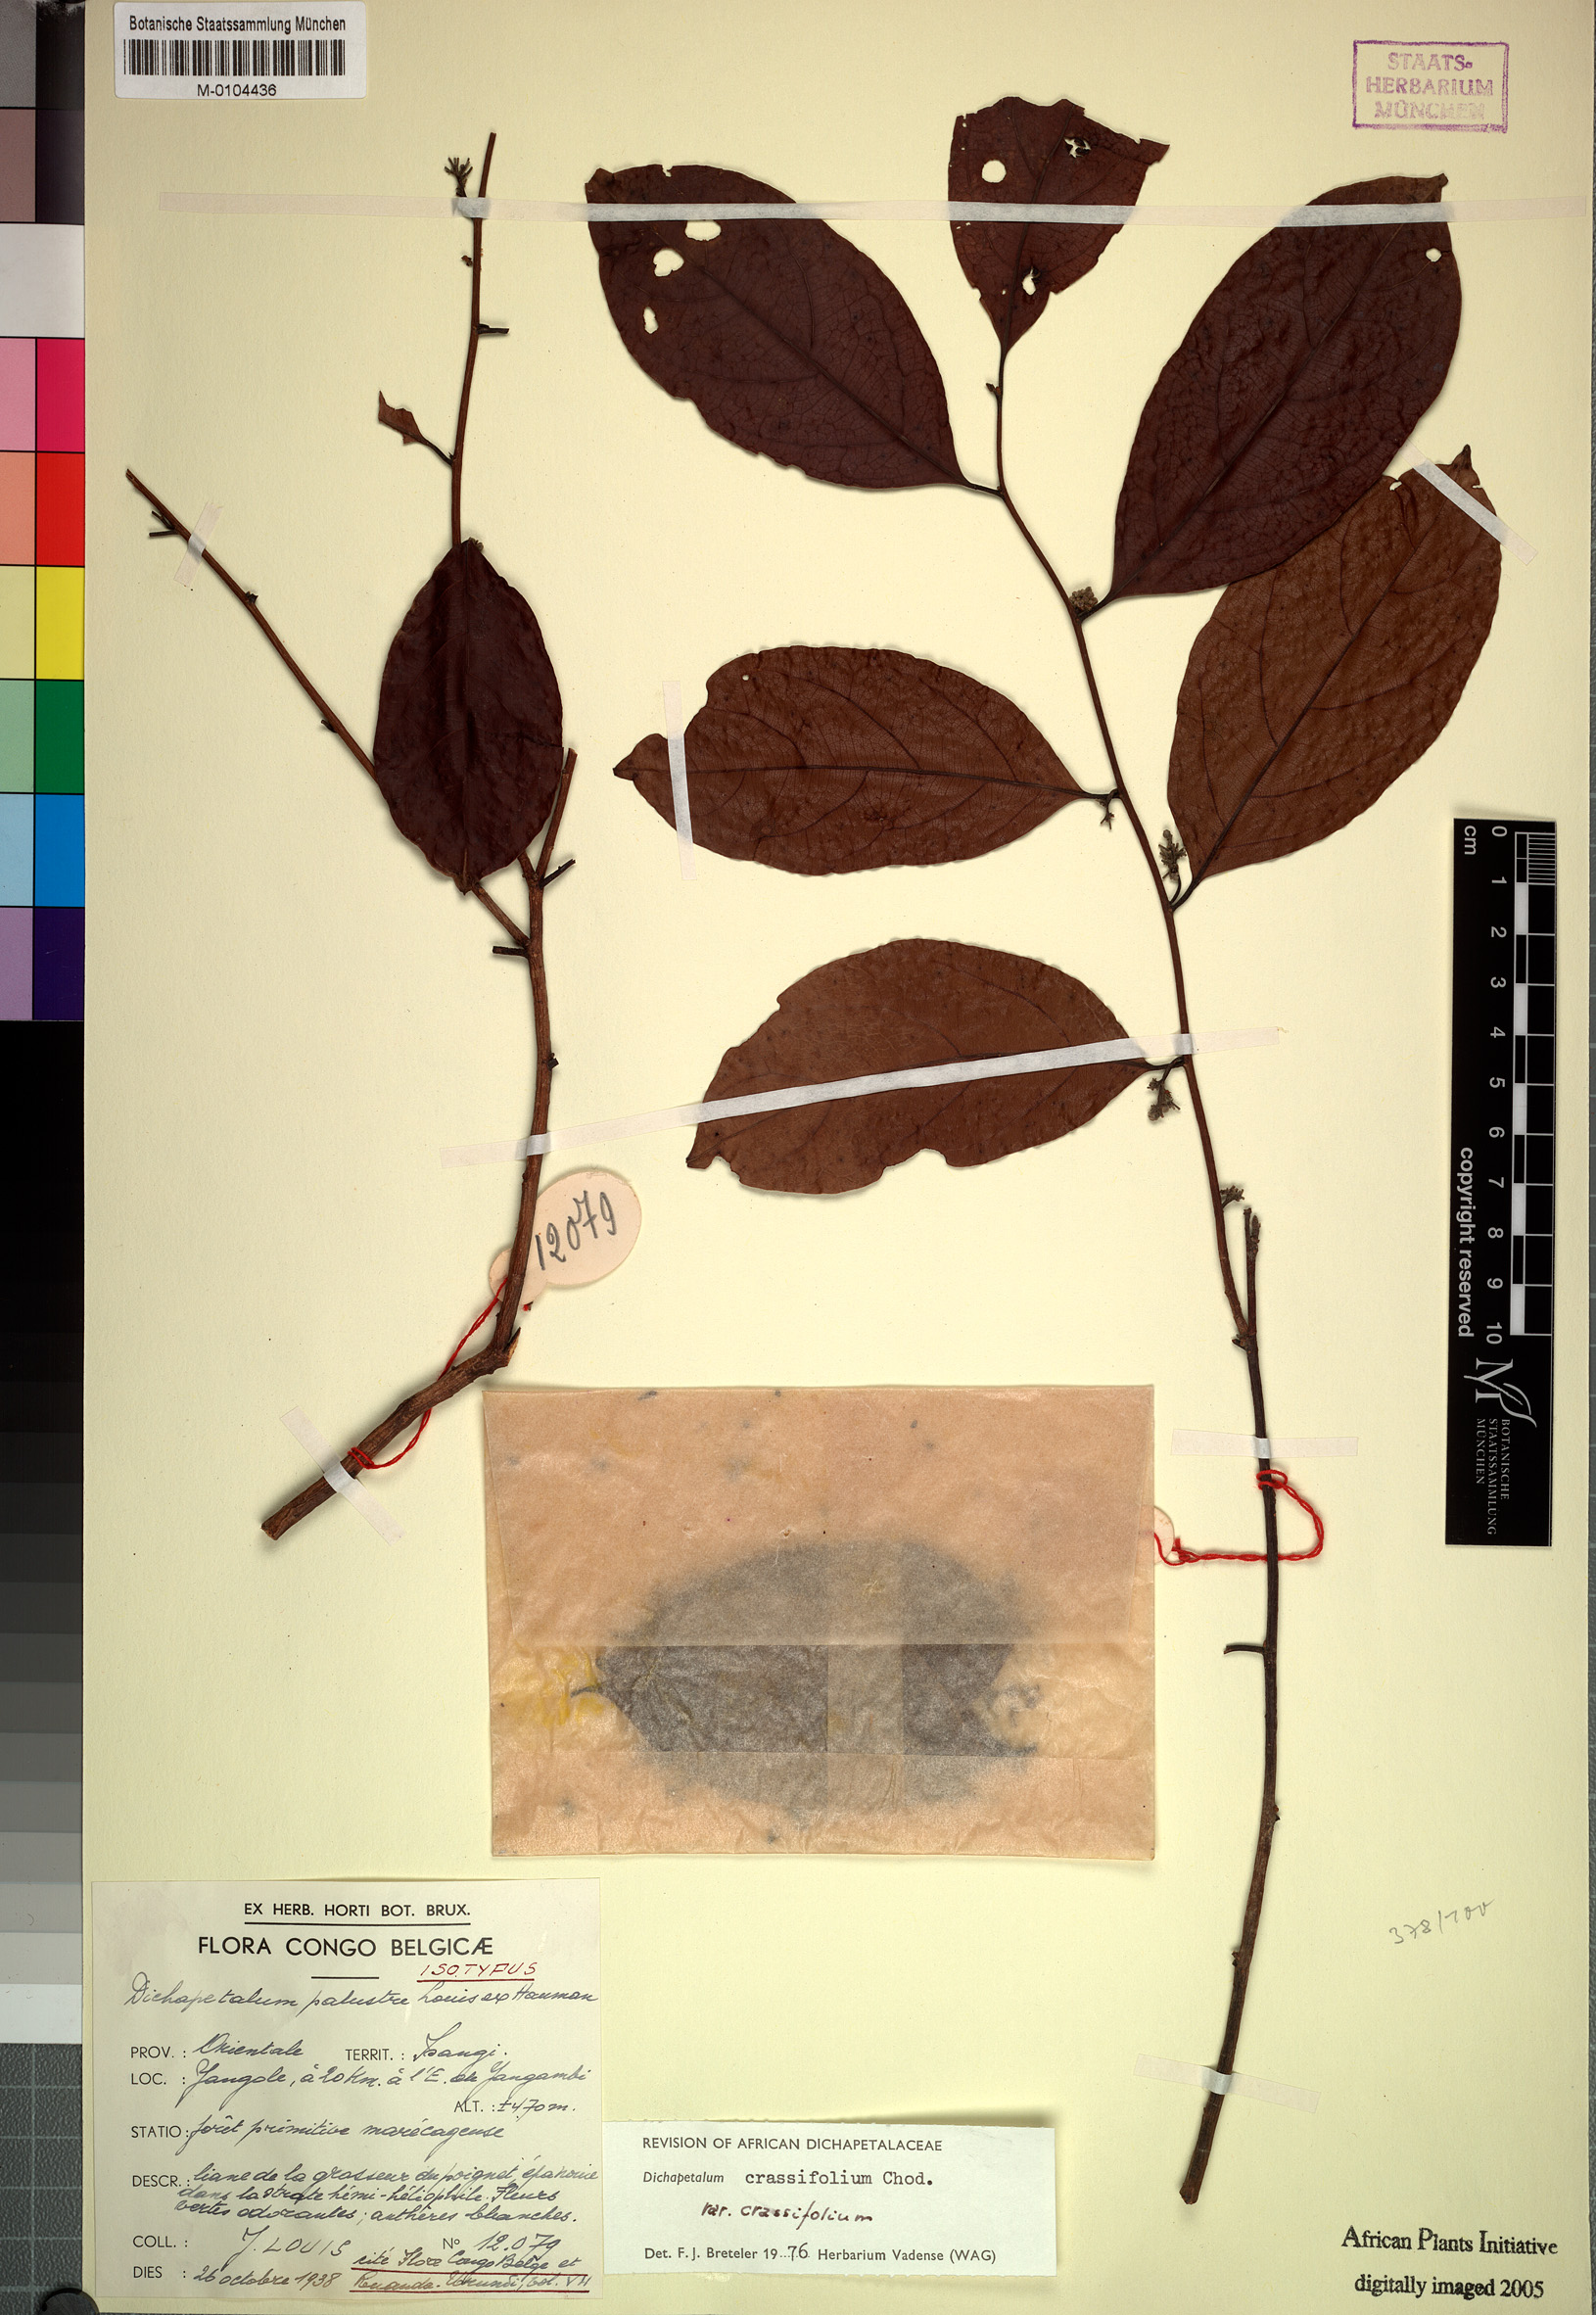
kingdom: Plantae
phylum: Tracheophyta
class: Magnoliopsida
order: Malpighiales
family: Dichapetalaceae
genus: Dichapetalum
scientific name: Dichapetalum crassifolium
